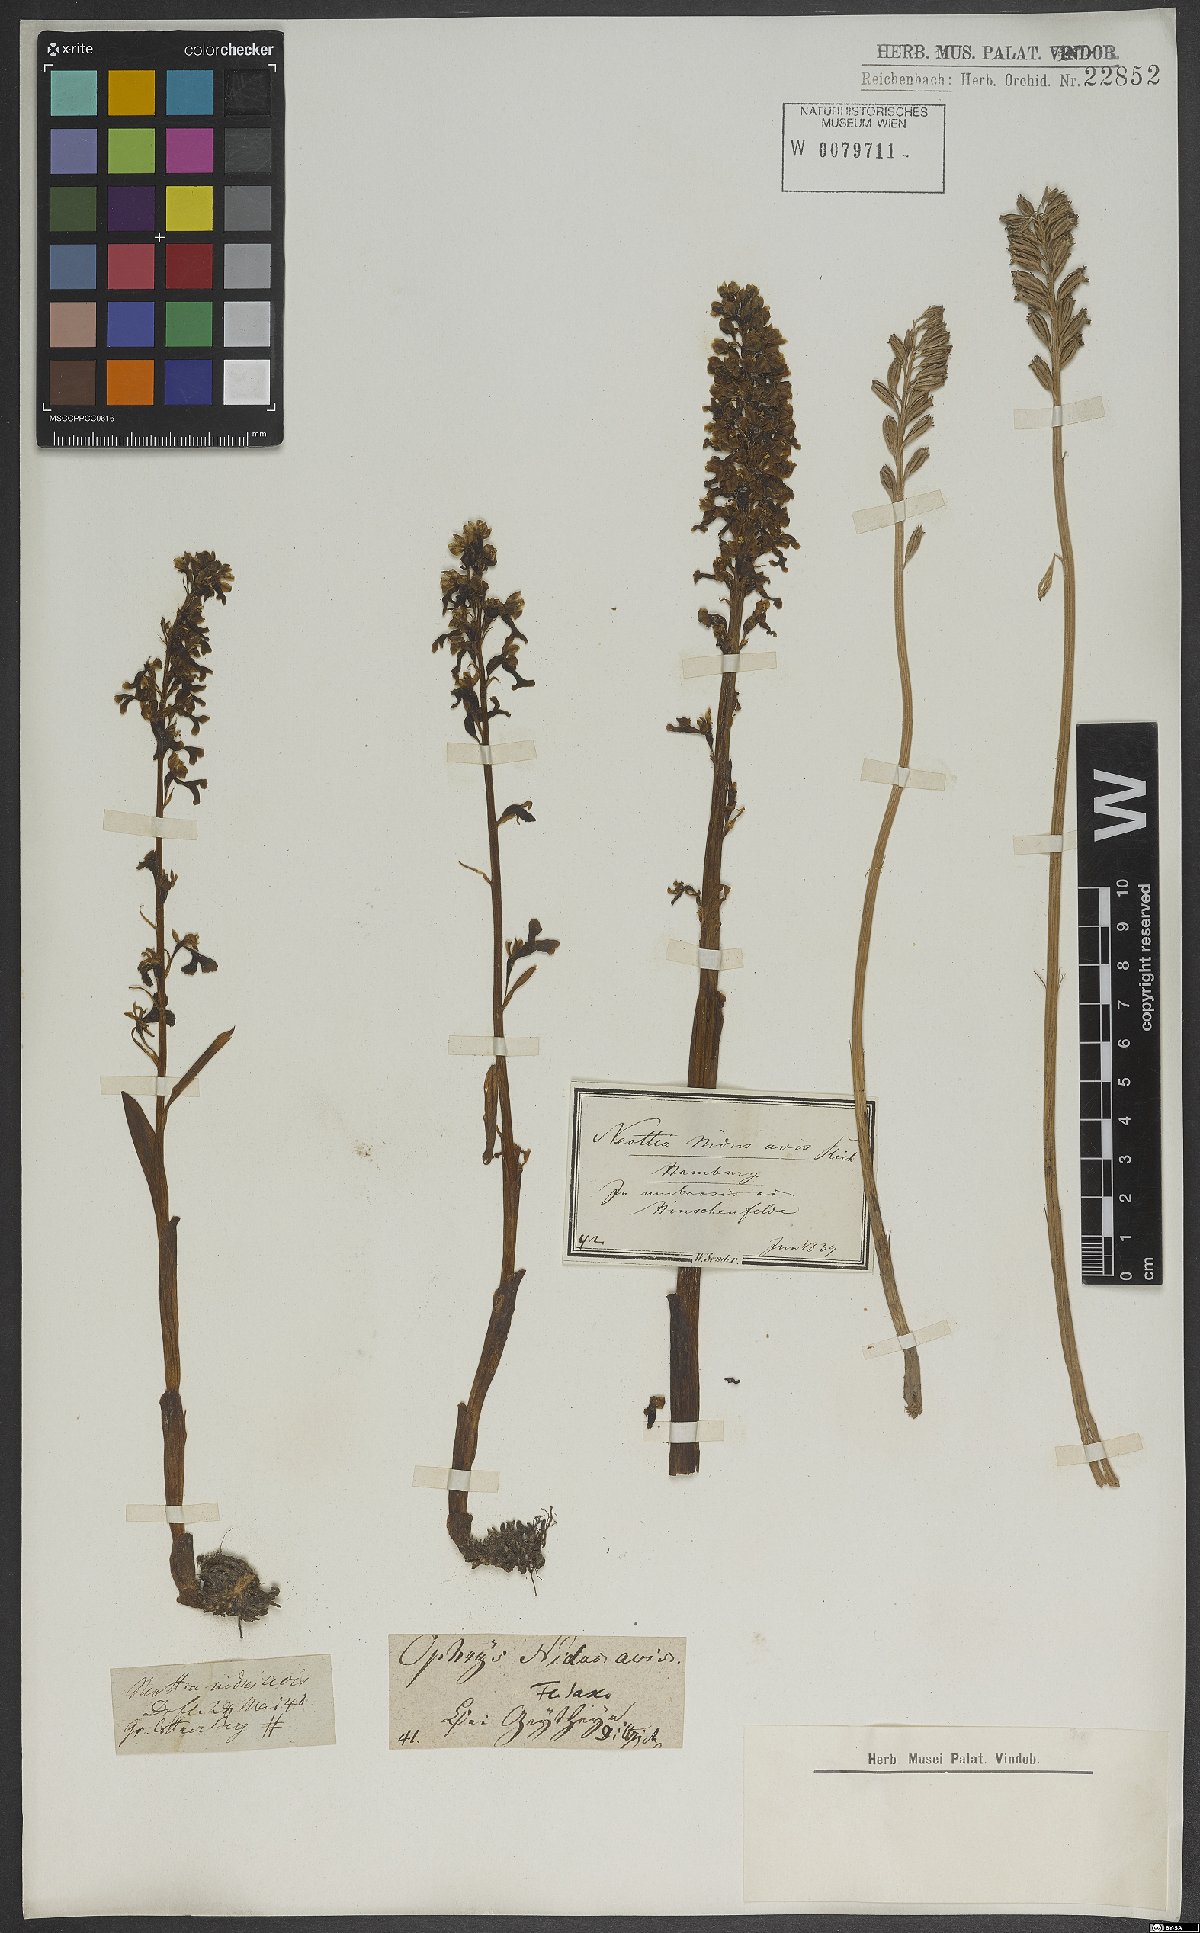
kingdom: Plantae
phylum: Tracheophyta
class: Liliopsida
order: Asparagales
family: Orchidaceae
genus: Neottia
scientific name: Neottia nidus-avis
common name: Bird's-nest orchid
